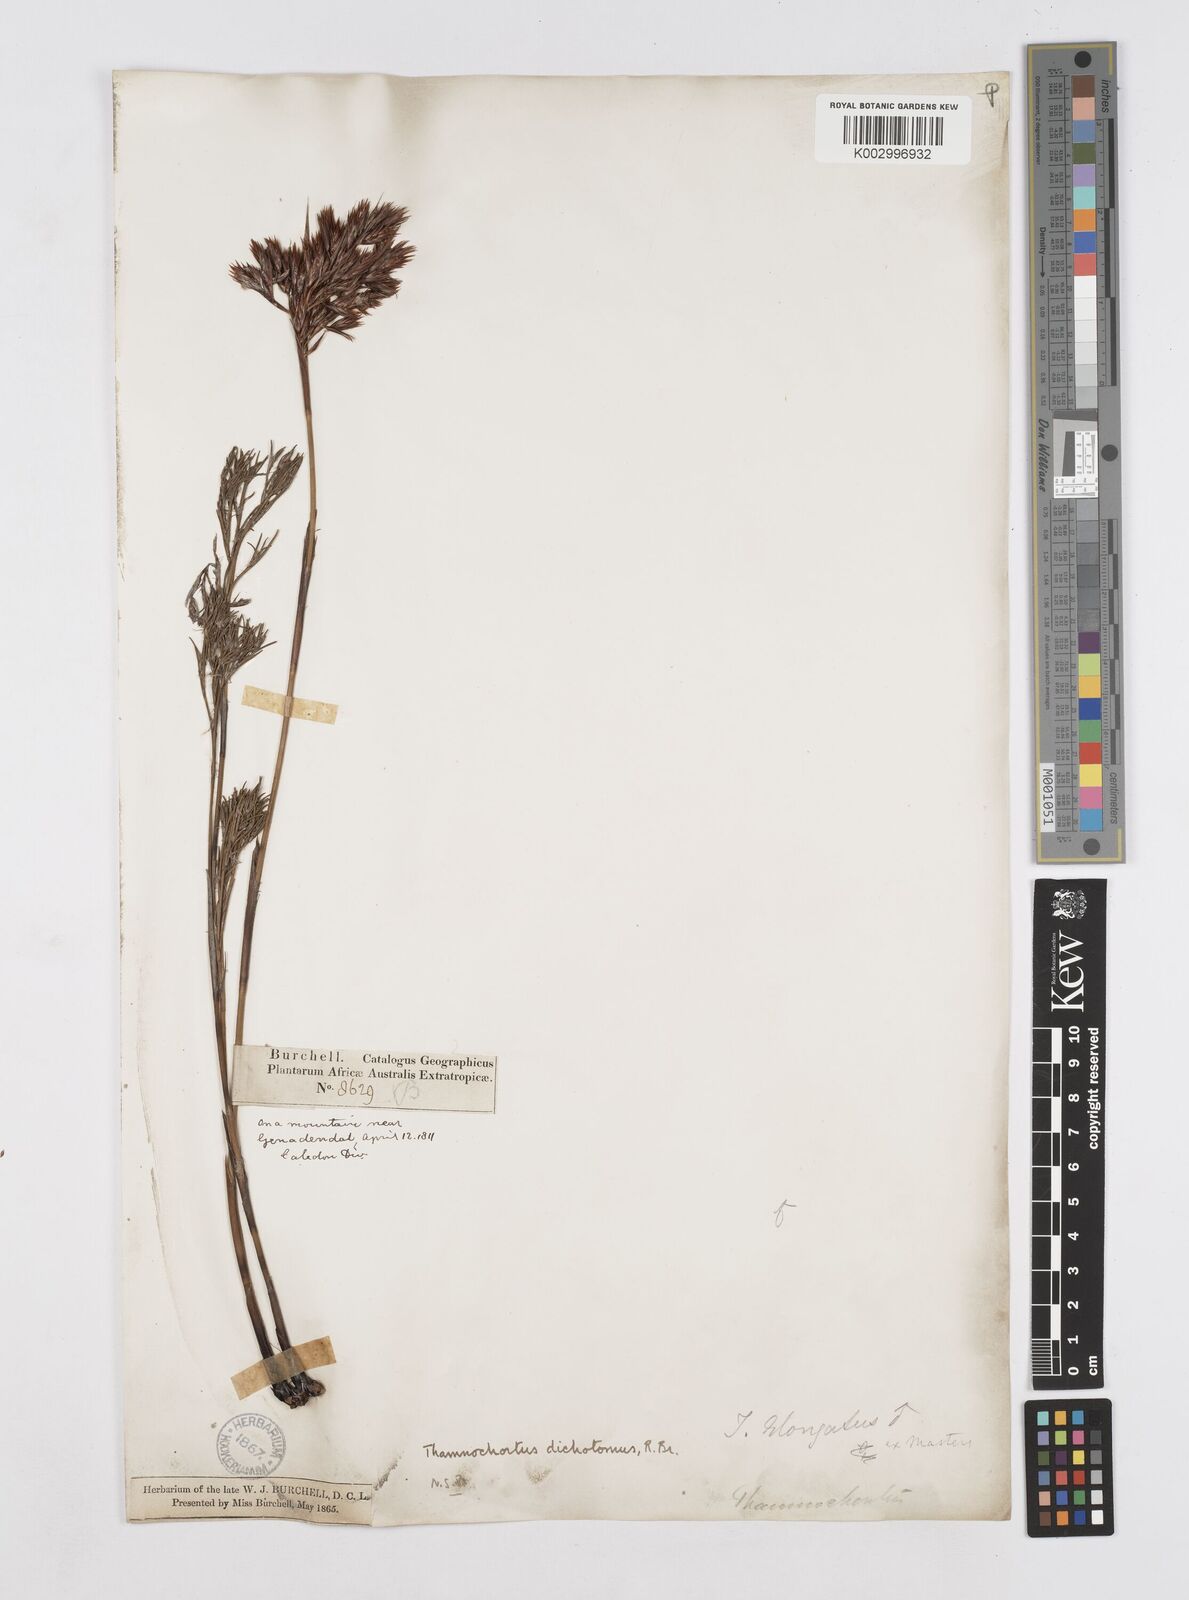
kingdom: Plantae
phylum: Tracheophyta
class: Liliopsida
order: Poales
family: Restionaceae
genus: Thamnochortus
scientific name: Thamnochortus lucens
